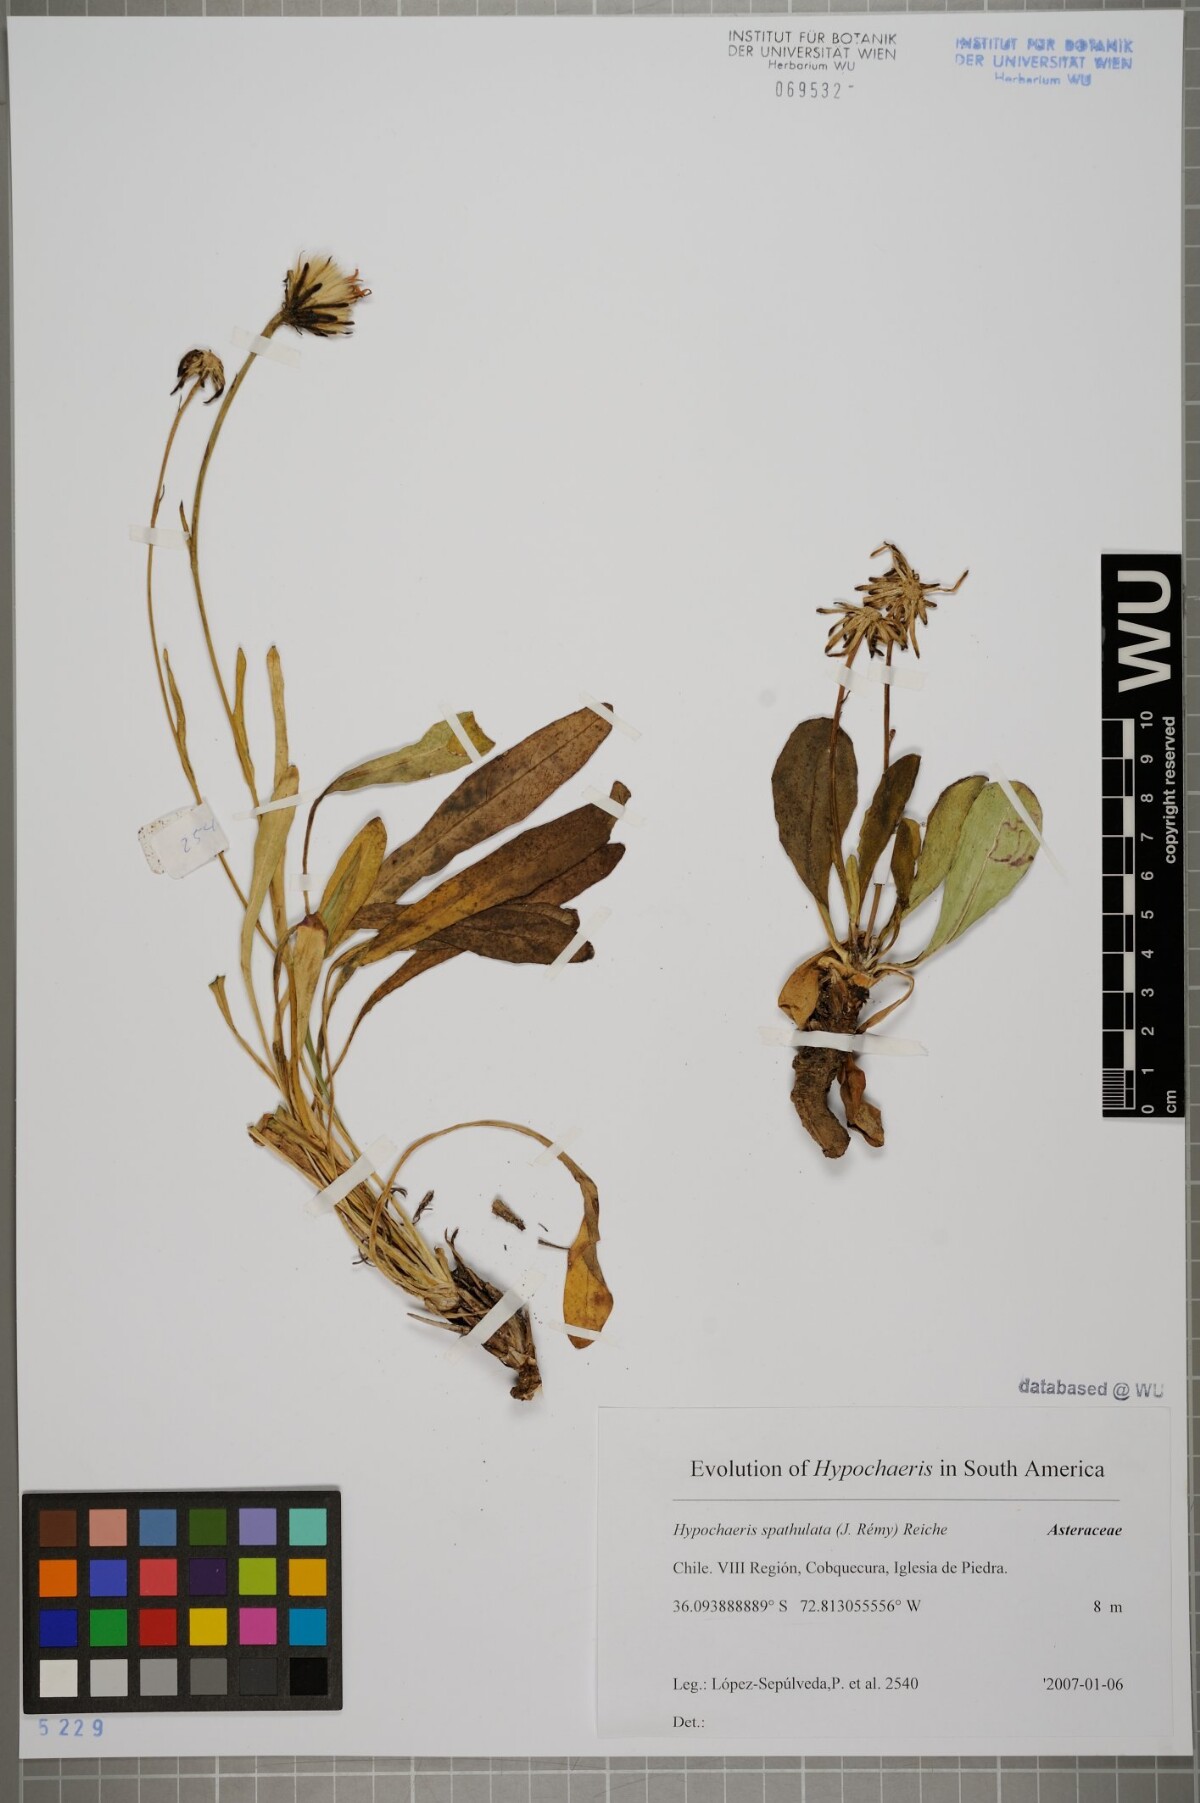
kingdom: Plantae
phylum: Tracheophyta
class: Magnoliopsida
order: Asterales
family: Asteraceae
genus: Hypochaeris
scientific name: Hypochaeris spathulata
